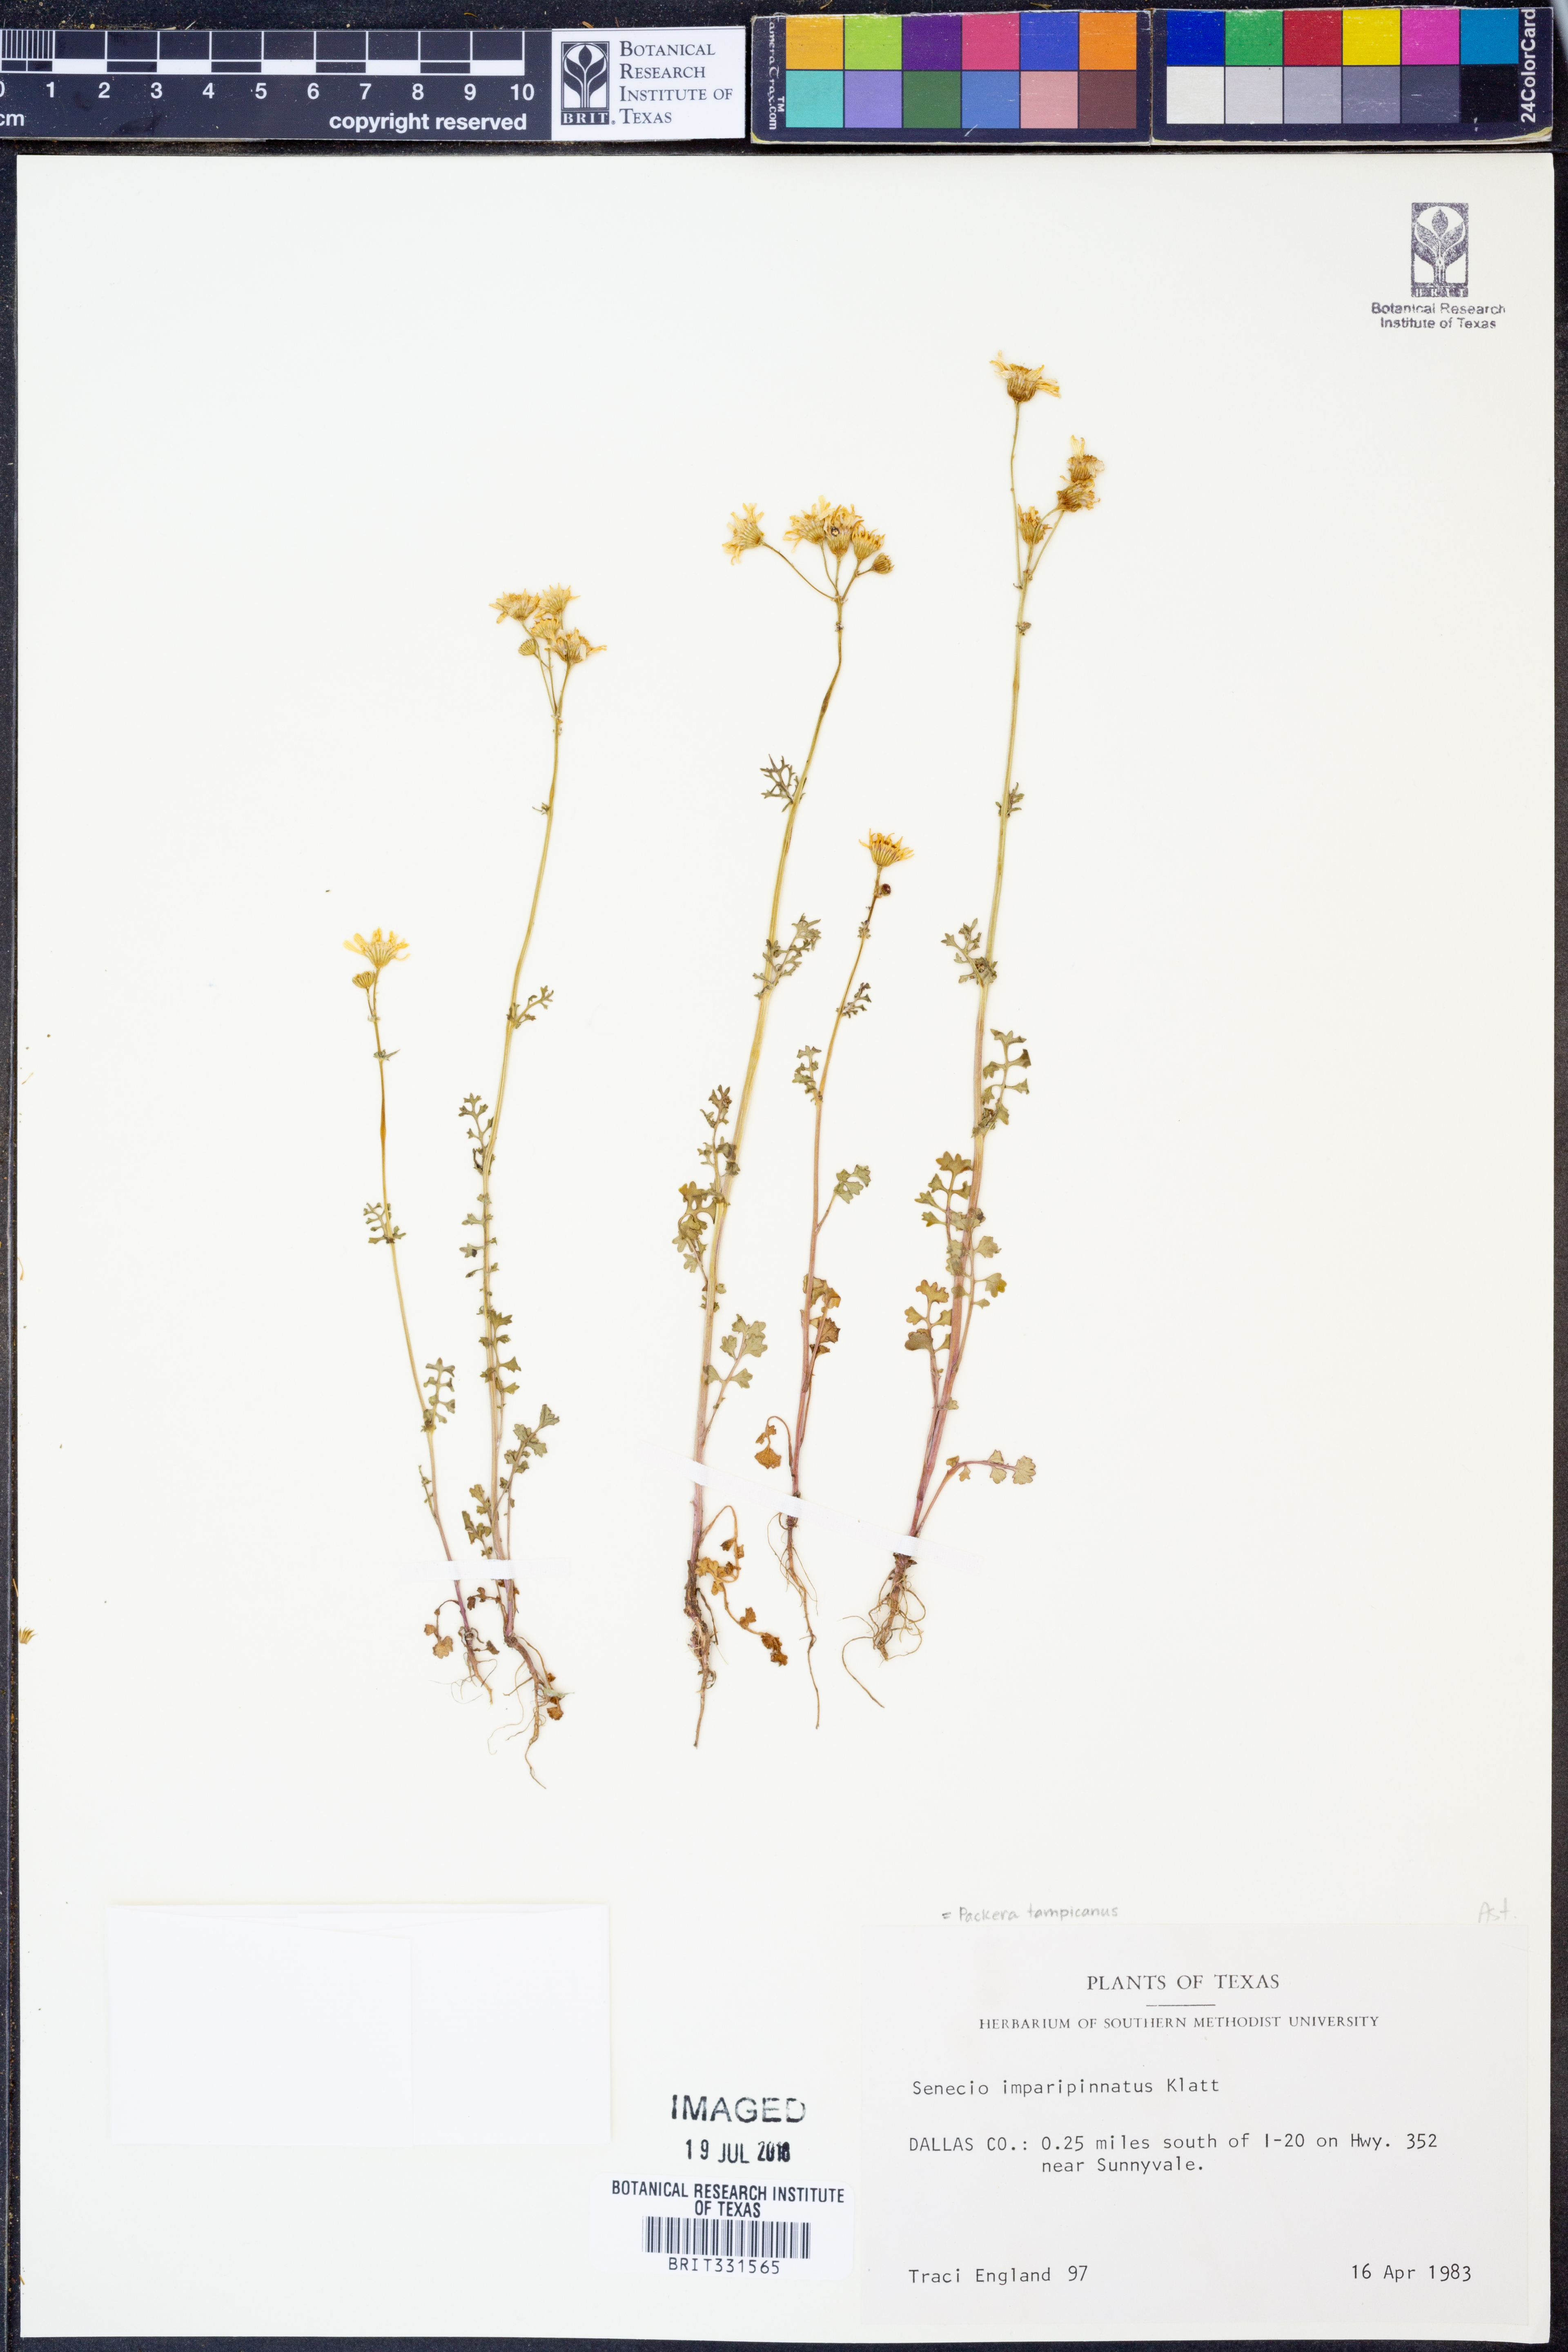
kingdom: Plantae
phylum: Tracheophyta
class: Magnoliopsida
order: Asterales
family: Asteraceae
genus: Packera
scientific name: Packera tampicana
